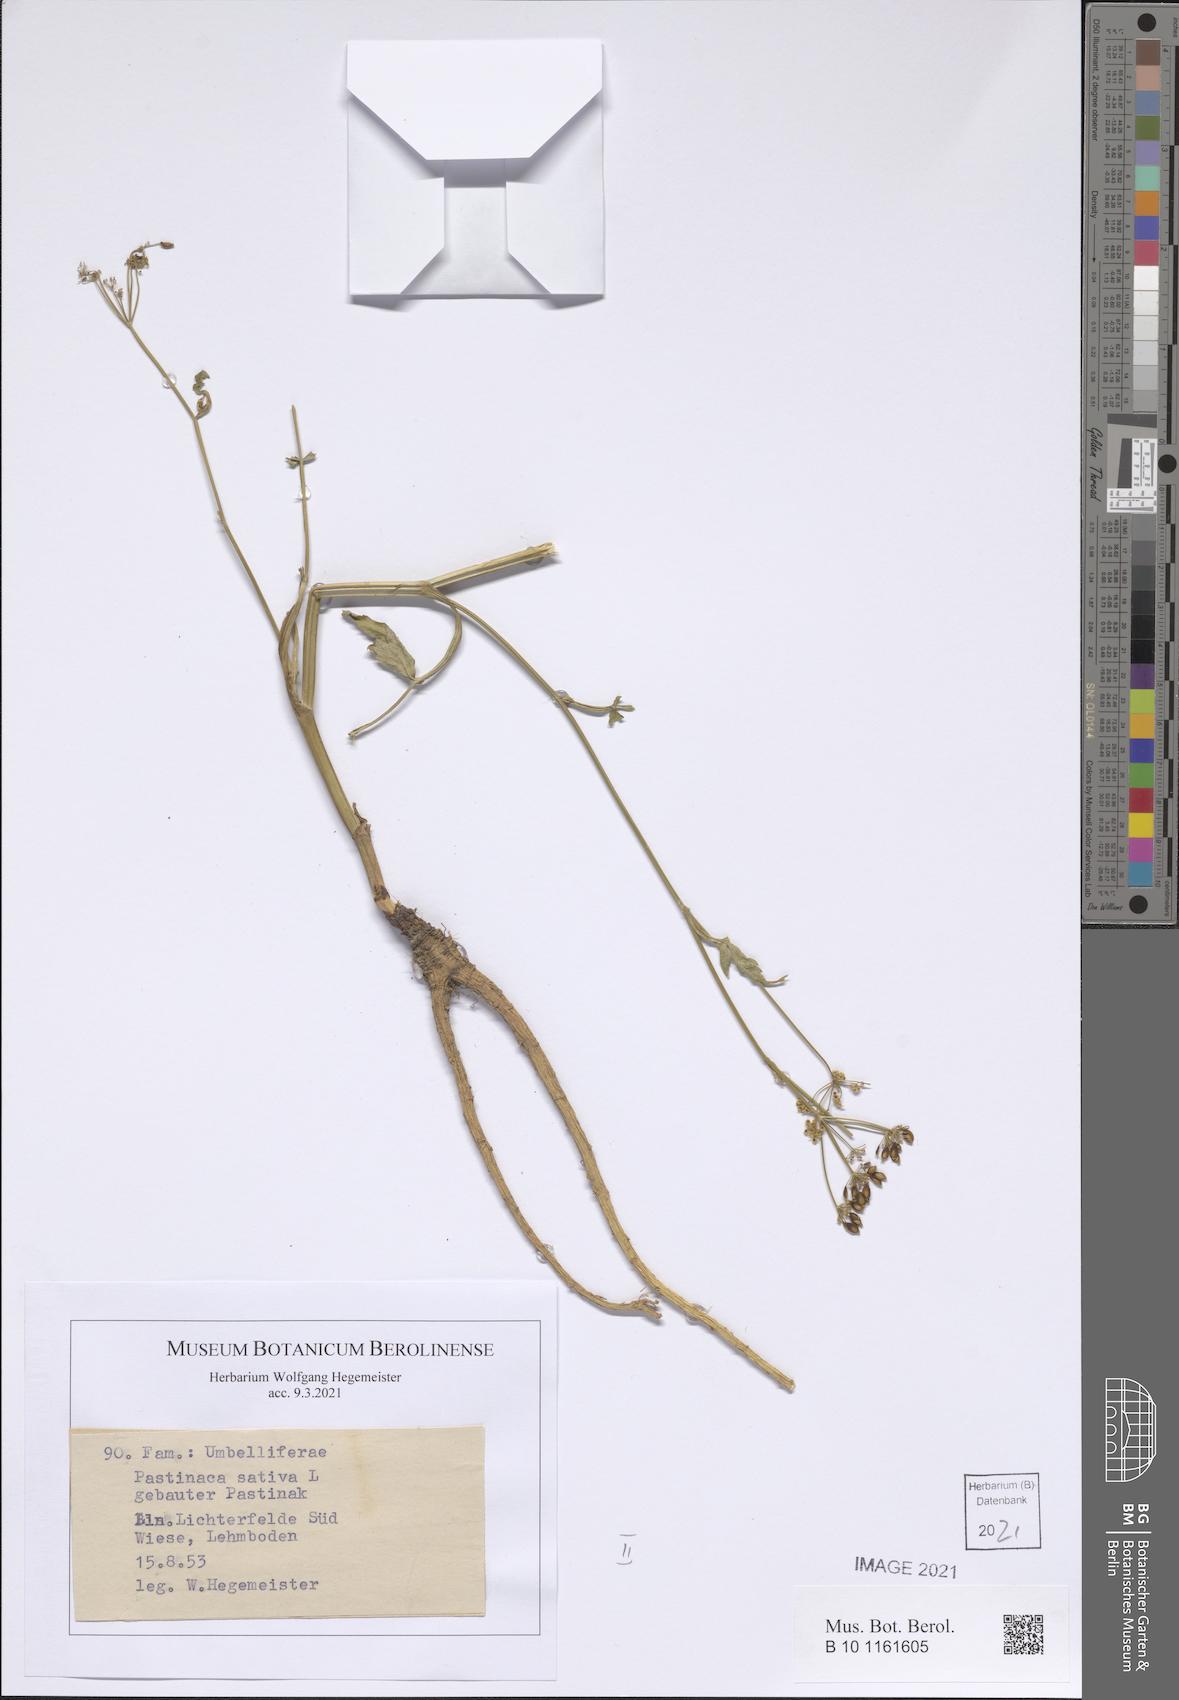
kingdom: Plantae
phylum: Tracheophyta
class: Magnoliopsida
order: Apiales
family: Apiaceae
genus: Pastinaca
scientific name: Pastinaca sativa
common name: Wild parsnip
